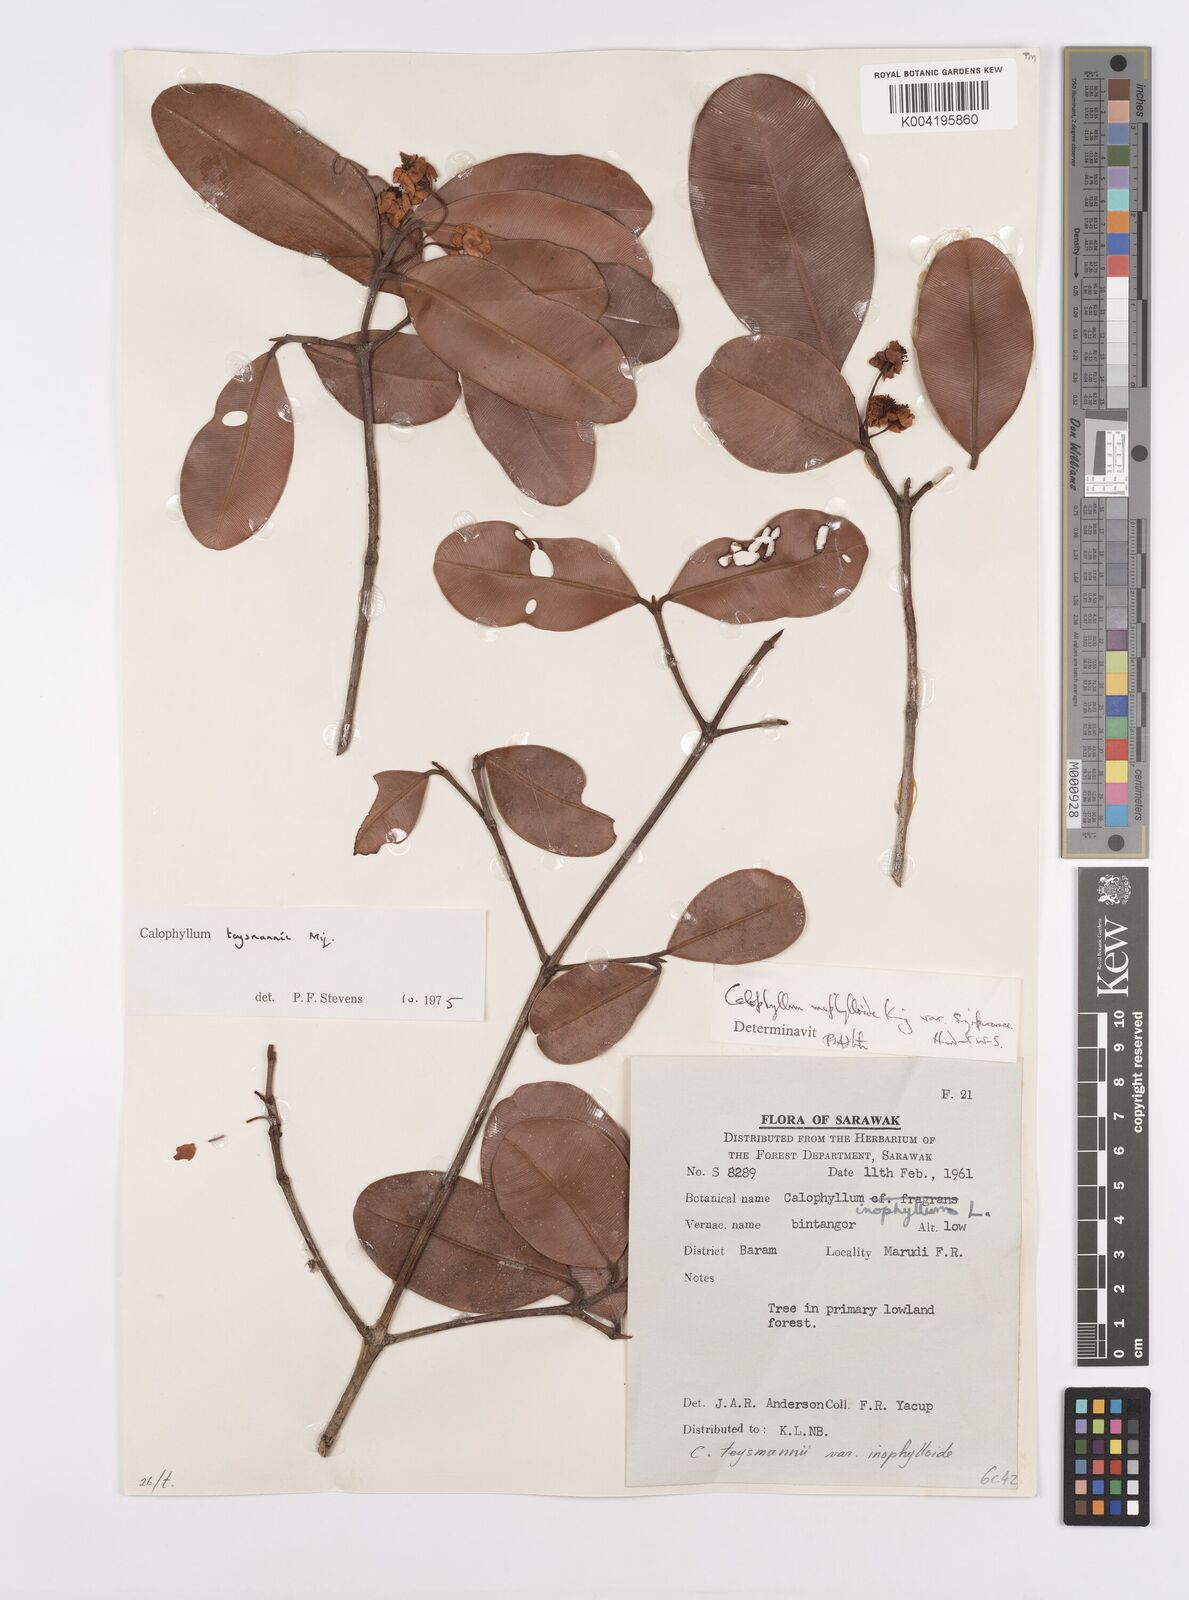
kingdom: Plantae
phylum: Tracheophyta
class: Magnoliopsida
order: Malpighiales
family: Calophyllaceae
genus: Calophyllum
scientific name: Calophyllum teysmannii
